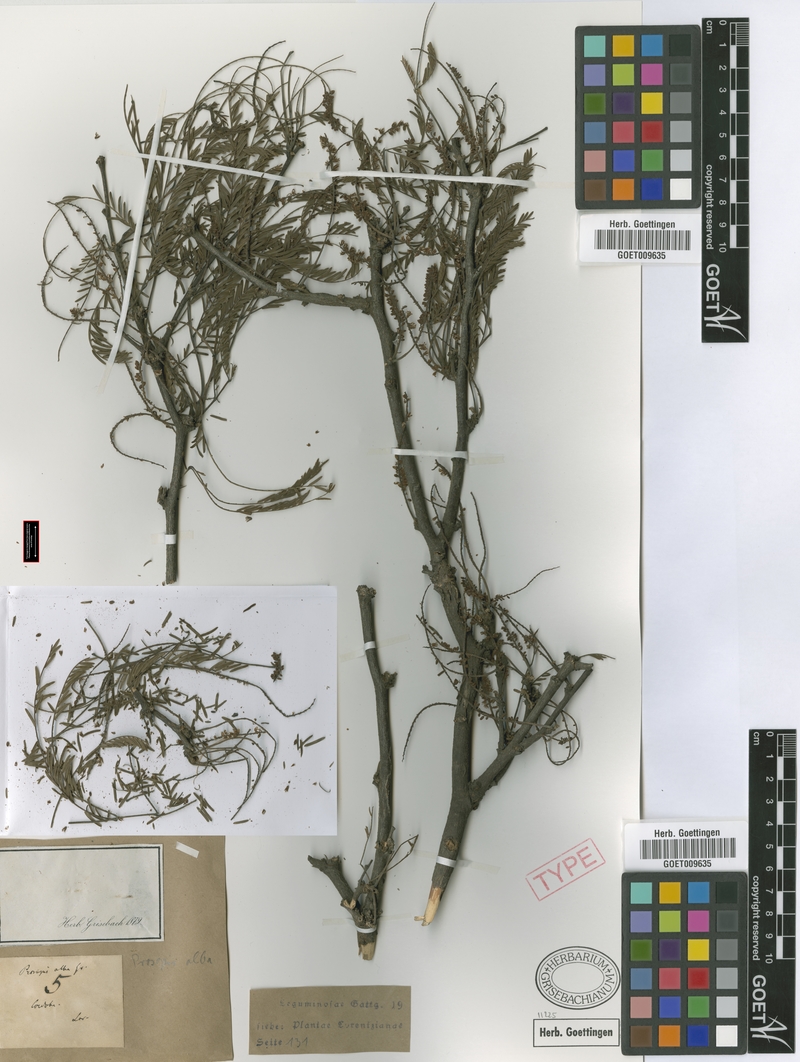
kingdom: Plantae
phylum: Tracheophyta
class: Magnoliopsida
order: Fabales
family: Fabaceae
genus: Prosopis
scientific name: Prosopis alba
